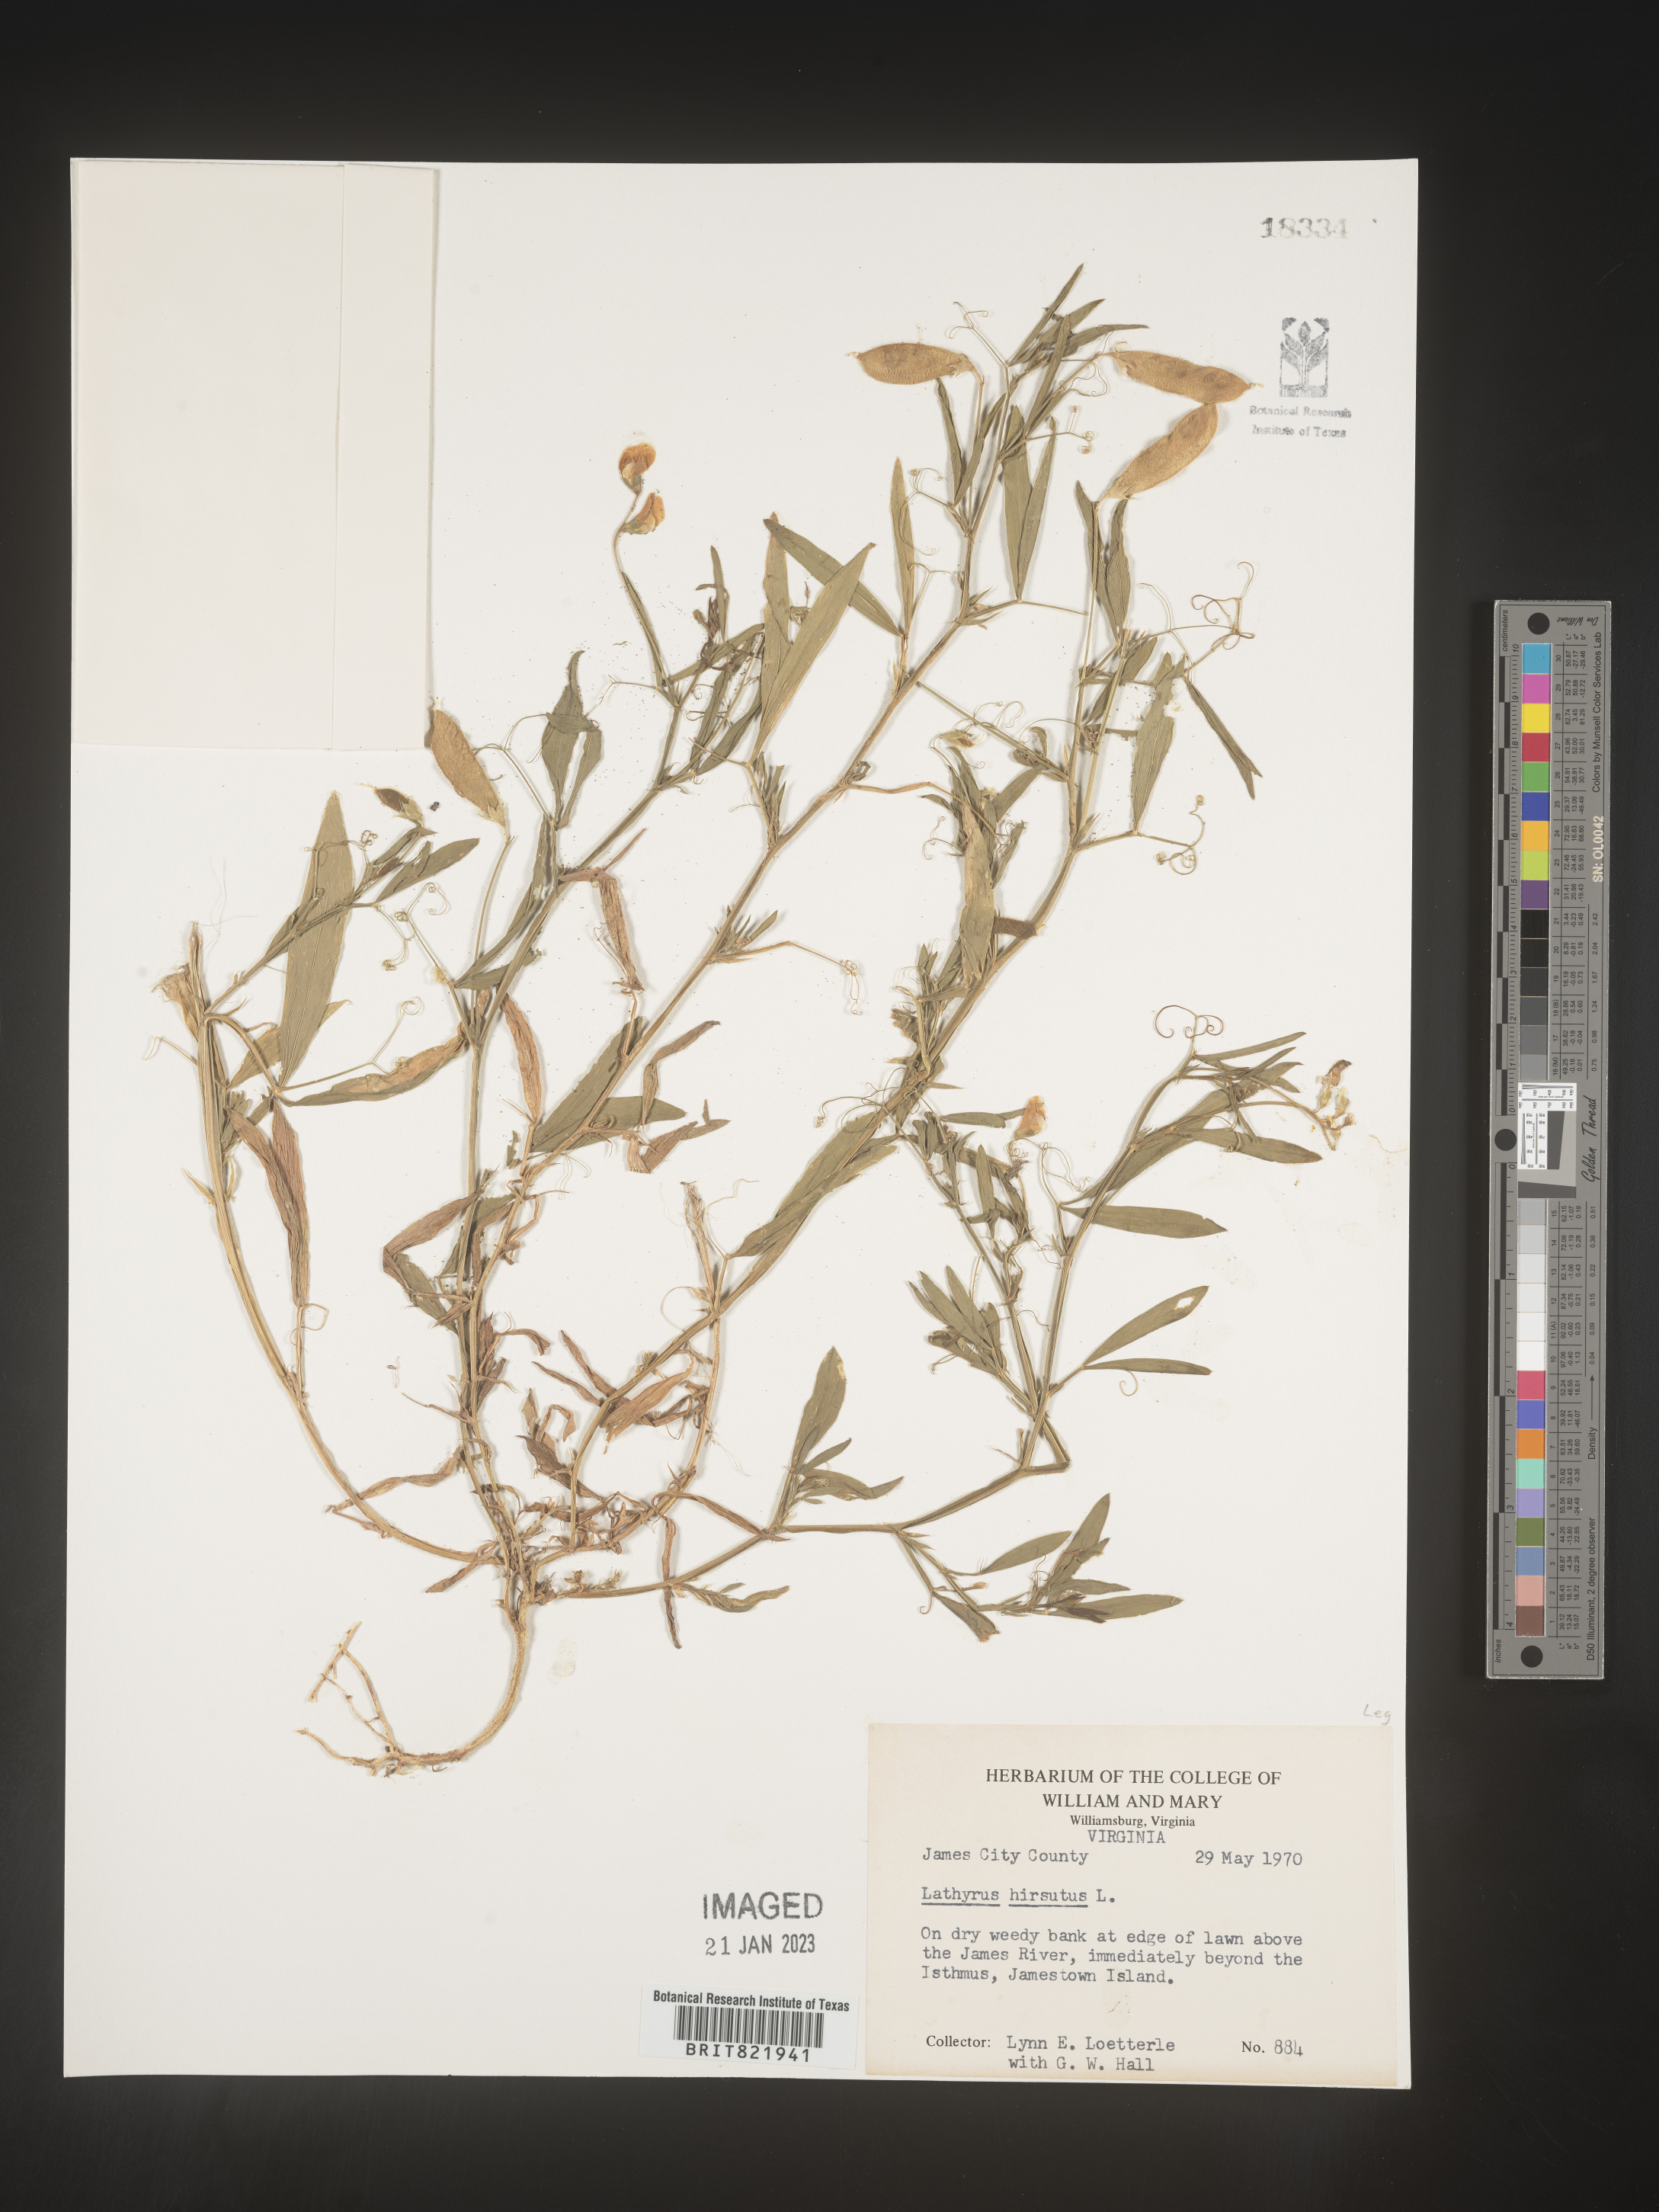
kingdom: Plantae
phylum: Tracheophyta
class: Magnoliopsida
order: Fabales
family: Fabaceae
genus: Lathyrus
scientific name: Lathyrus hirsutus
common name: Hairy vetchling
